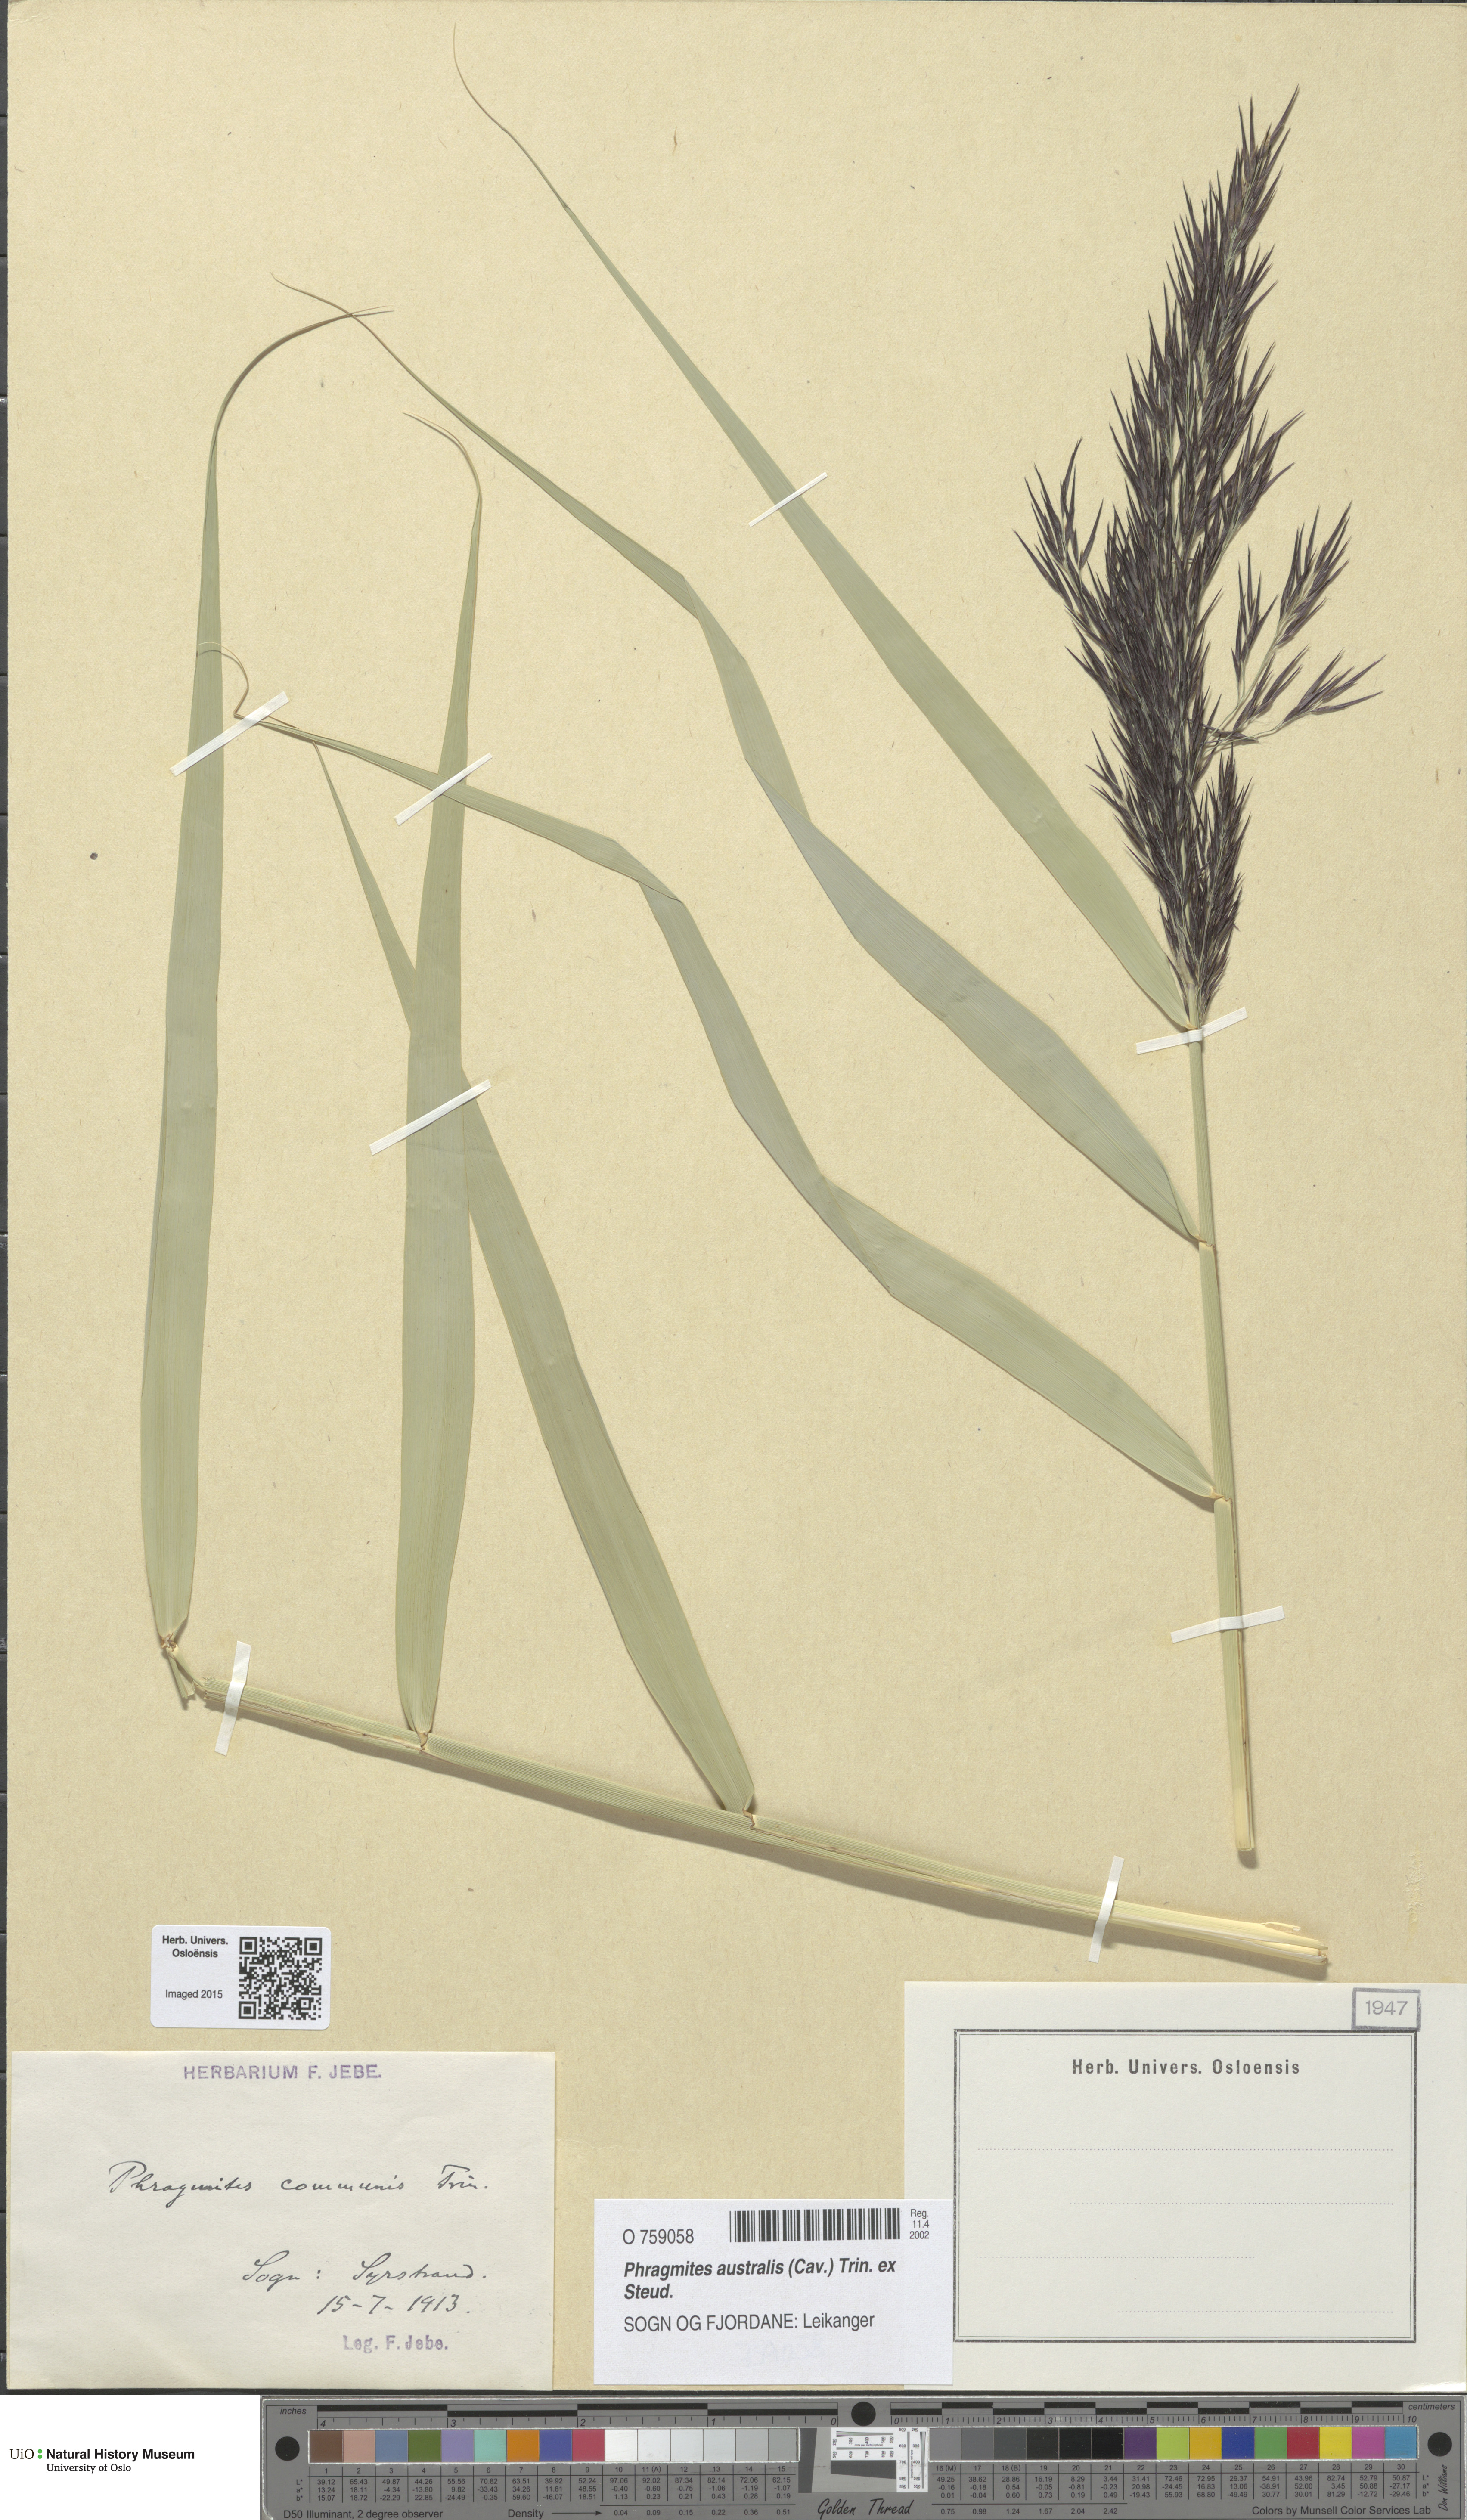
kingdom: Plantae
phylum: Tracheophyta
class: Liliopsida
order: Poales
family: Poaceae
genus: Phragmites
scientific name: Phragmites australis
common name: Common reed
